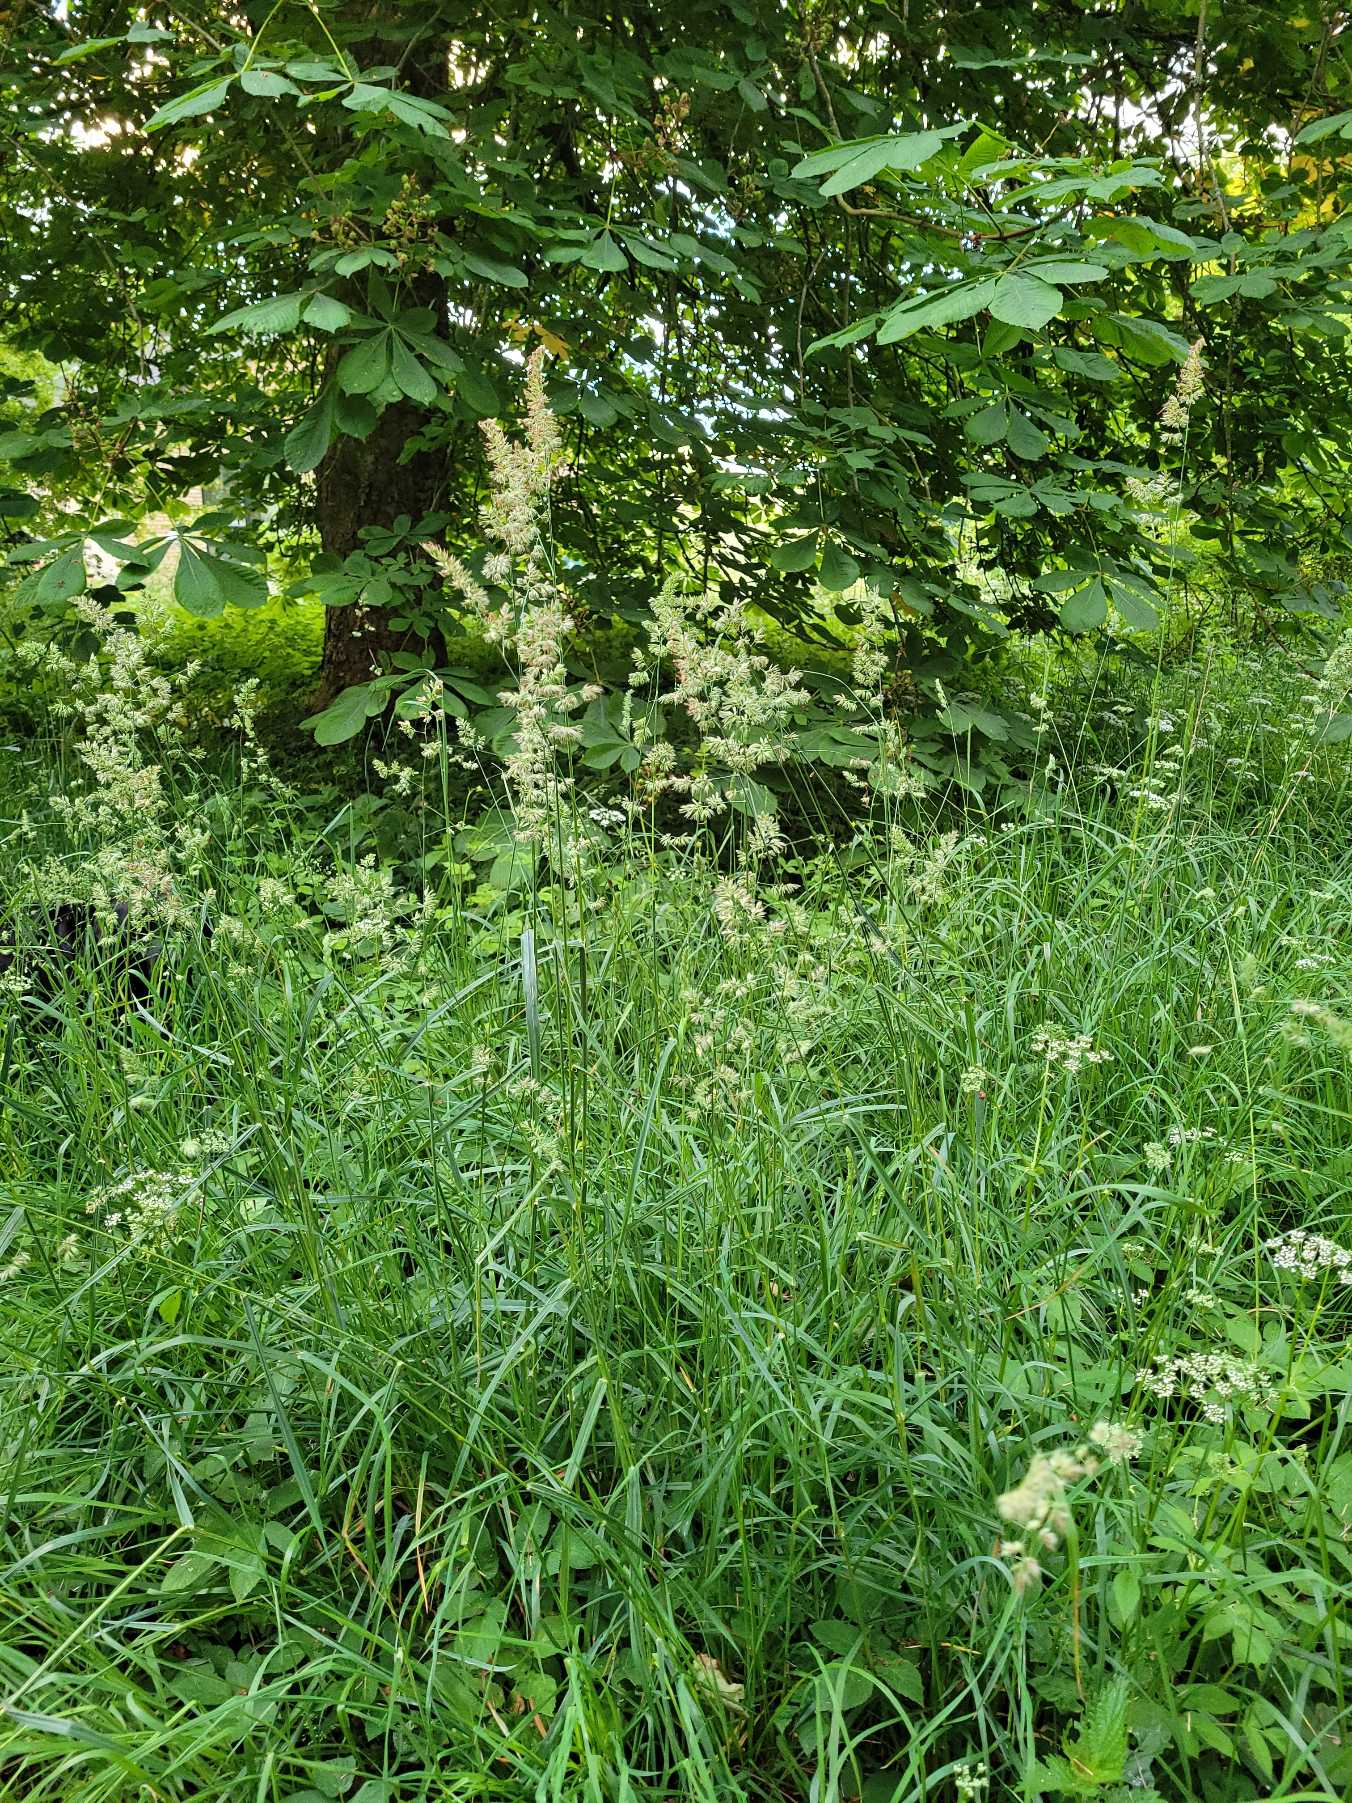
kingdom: Plantae
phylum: Tracheophyta
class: Liliopsida
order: Poales
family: Poaceae
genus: Dactylis
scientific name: Dactylis glomerata
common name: Almindelig hundegræs
